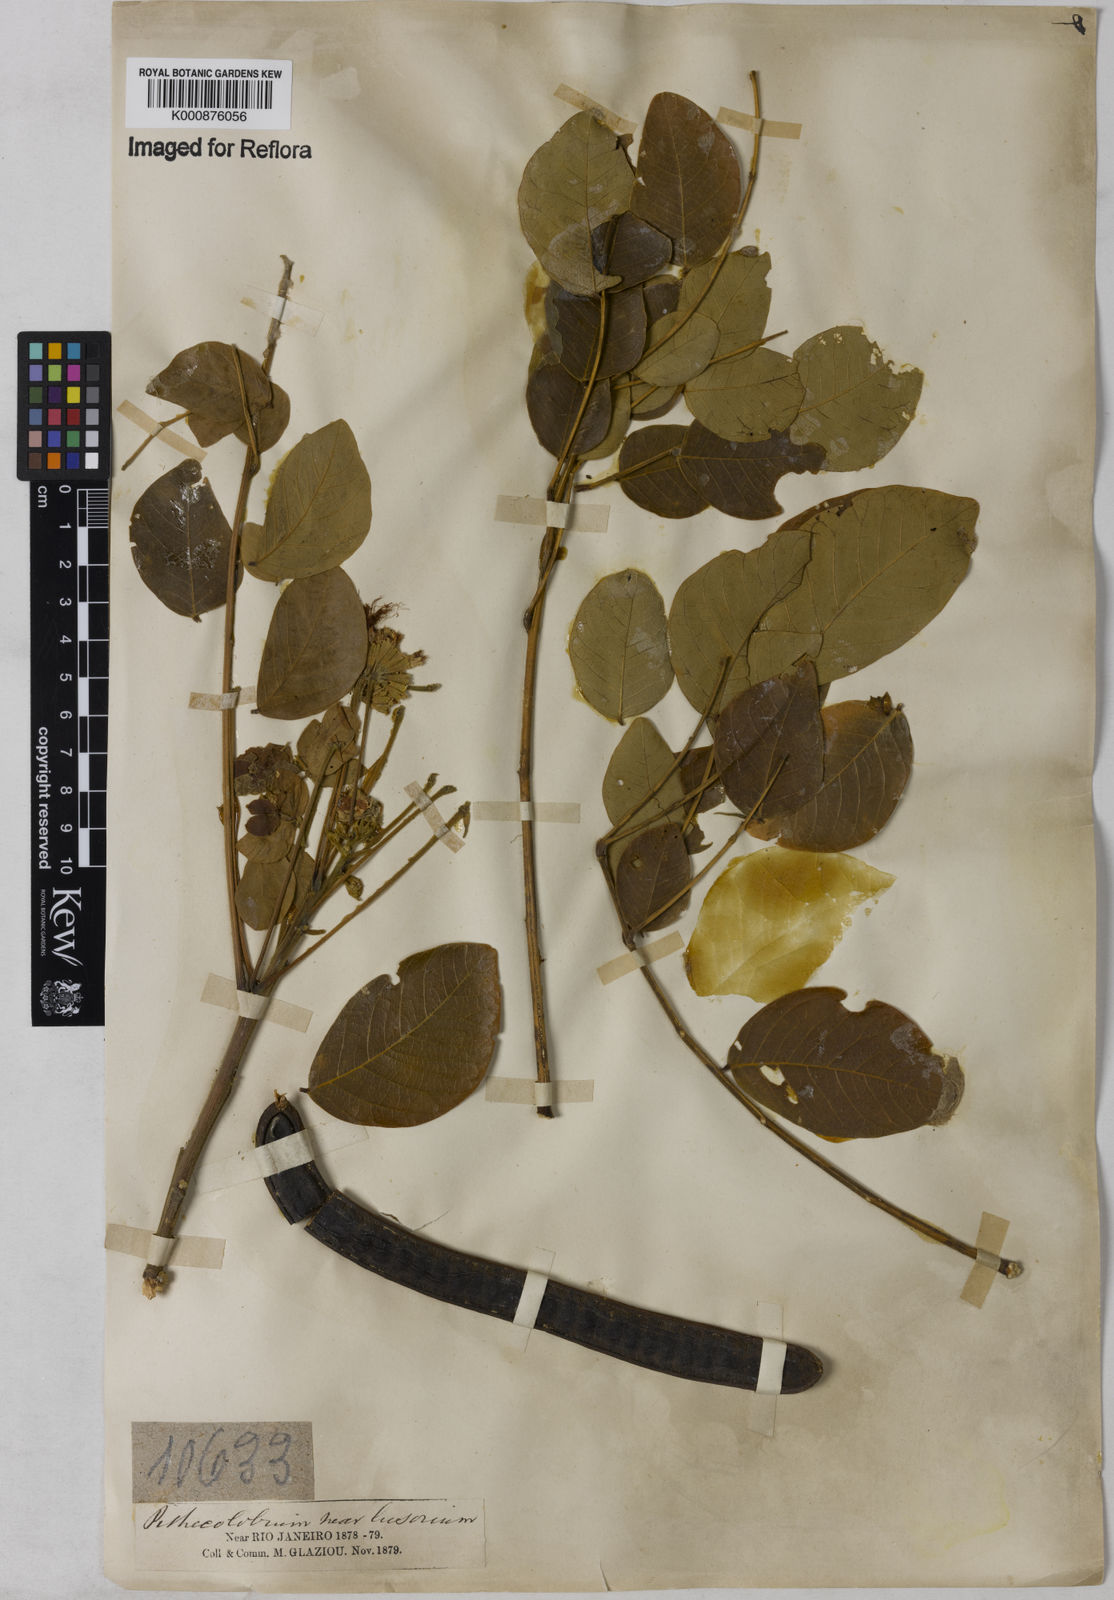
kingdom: Plantae
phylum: Tracheophyta
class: Magnoliopsida
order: Fabales
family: Fabaceae
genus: Samanea
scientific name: Samanea tubulosa
